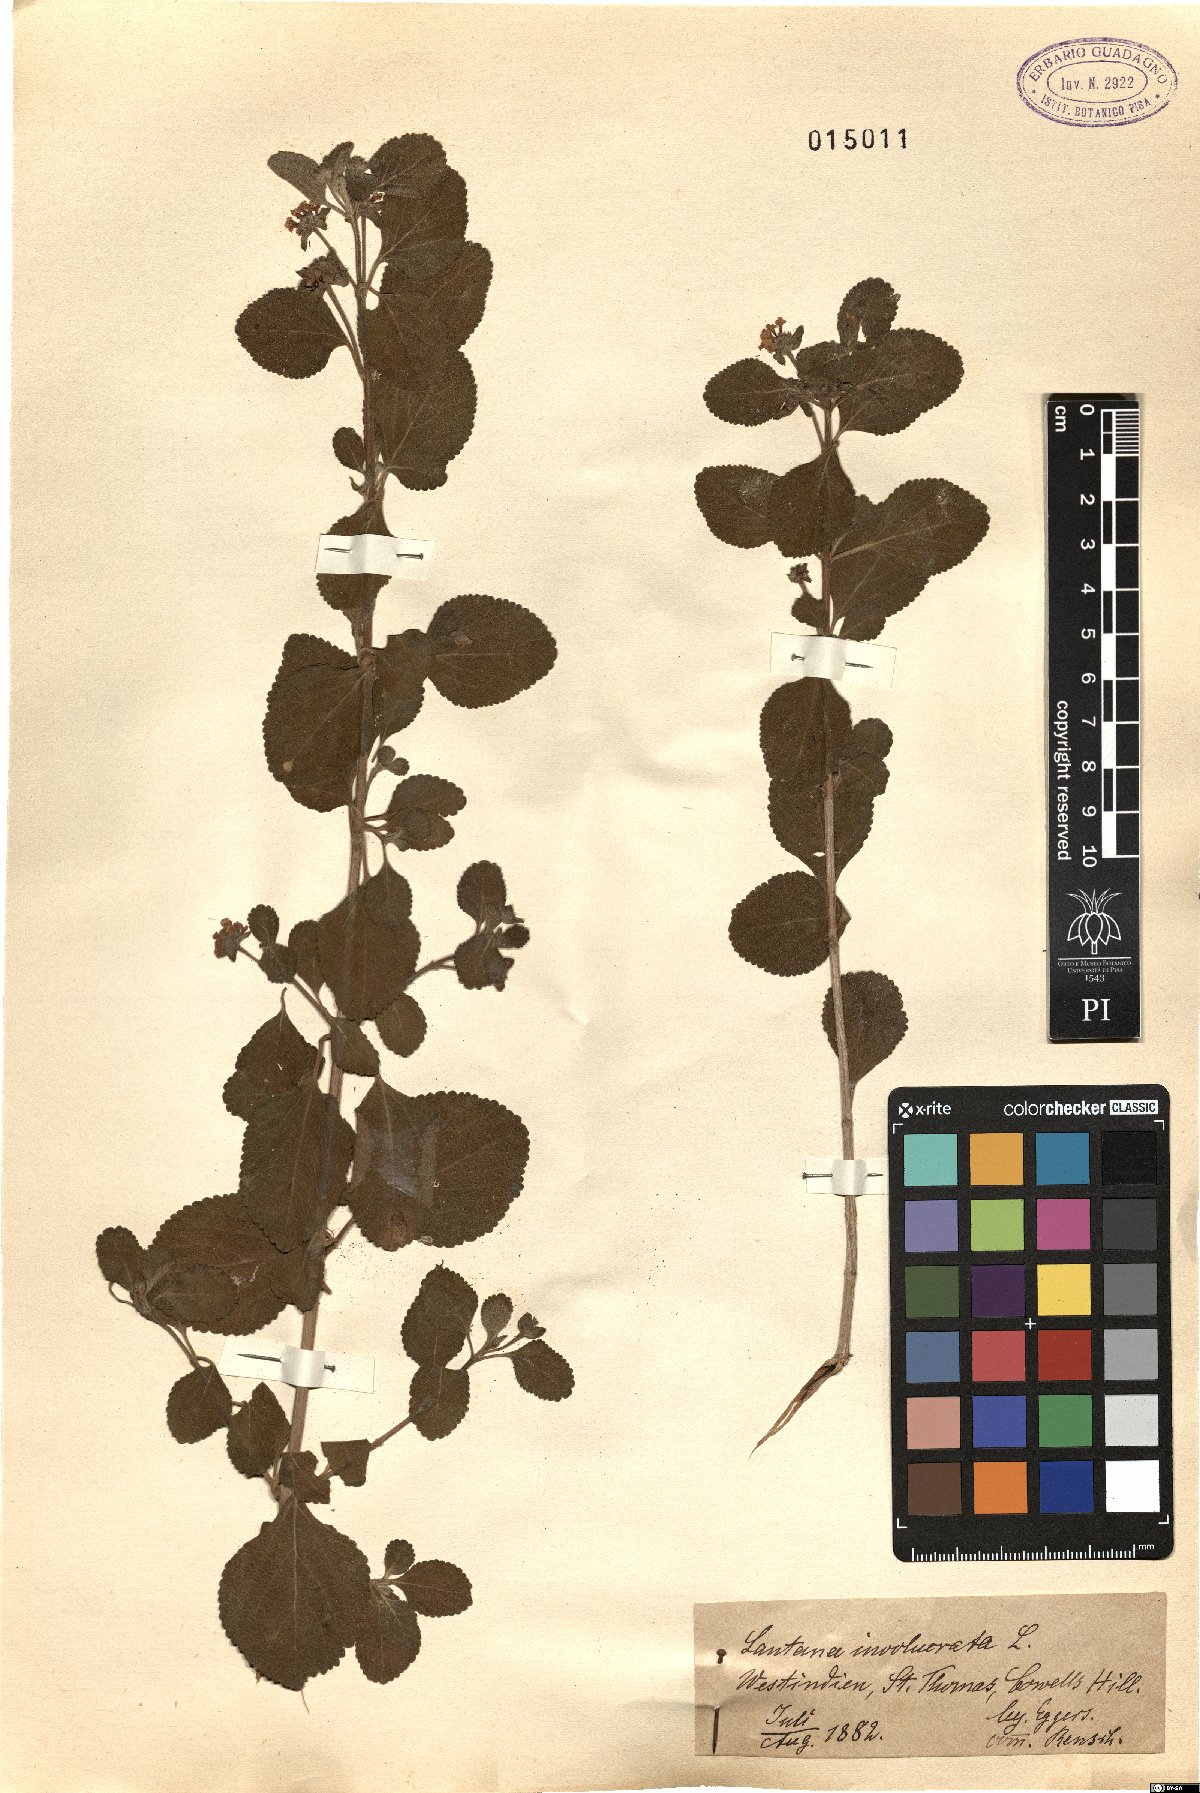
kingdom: Plantae
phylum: Tracheophyta
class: Magnoliopsida
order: Lamiales
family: Verbenaceae
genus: Lantana
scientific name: Lantana involucrata
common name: Black sage
